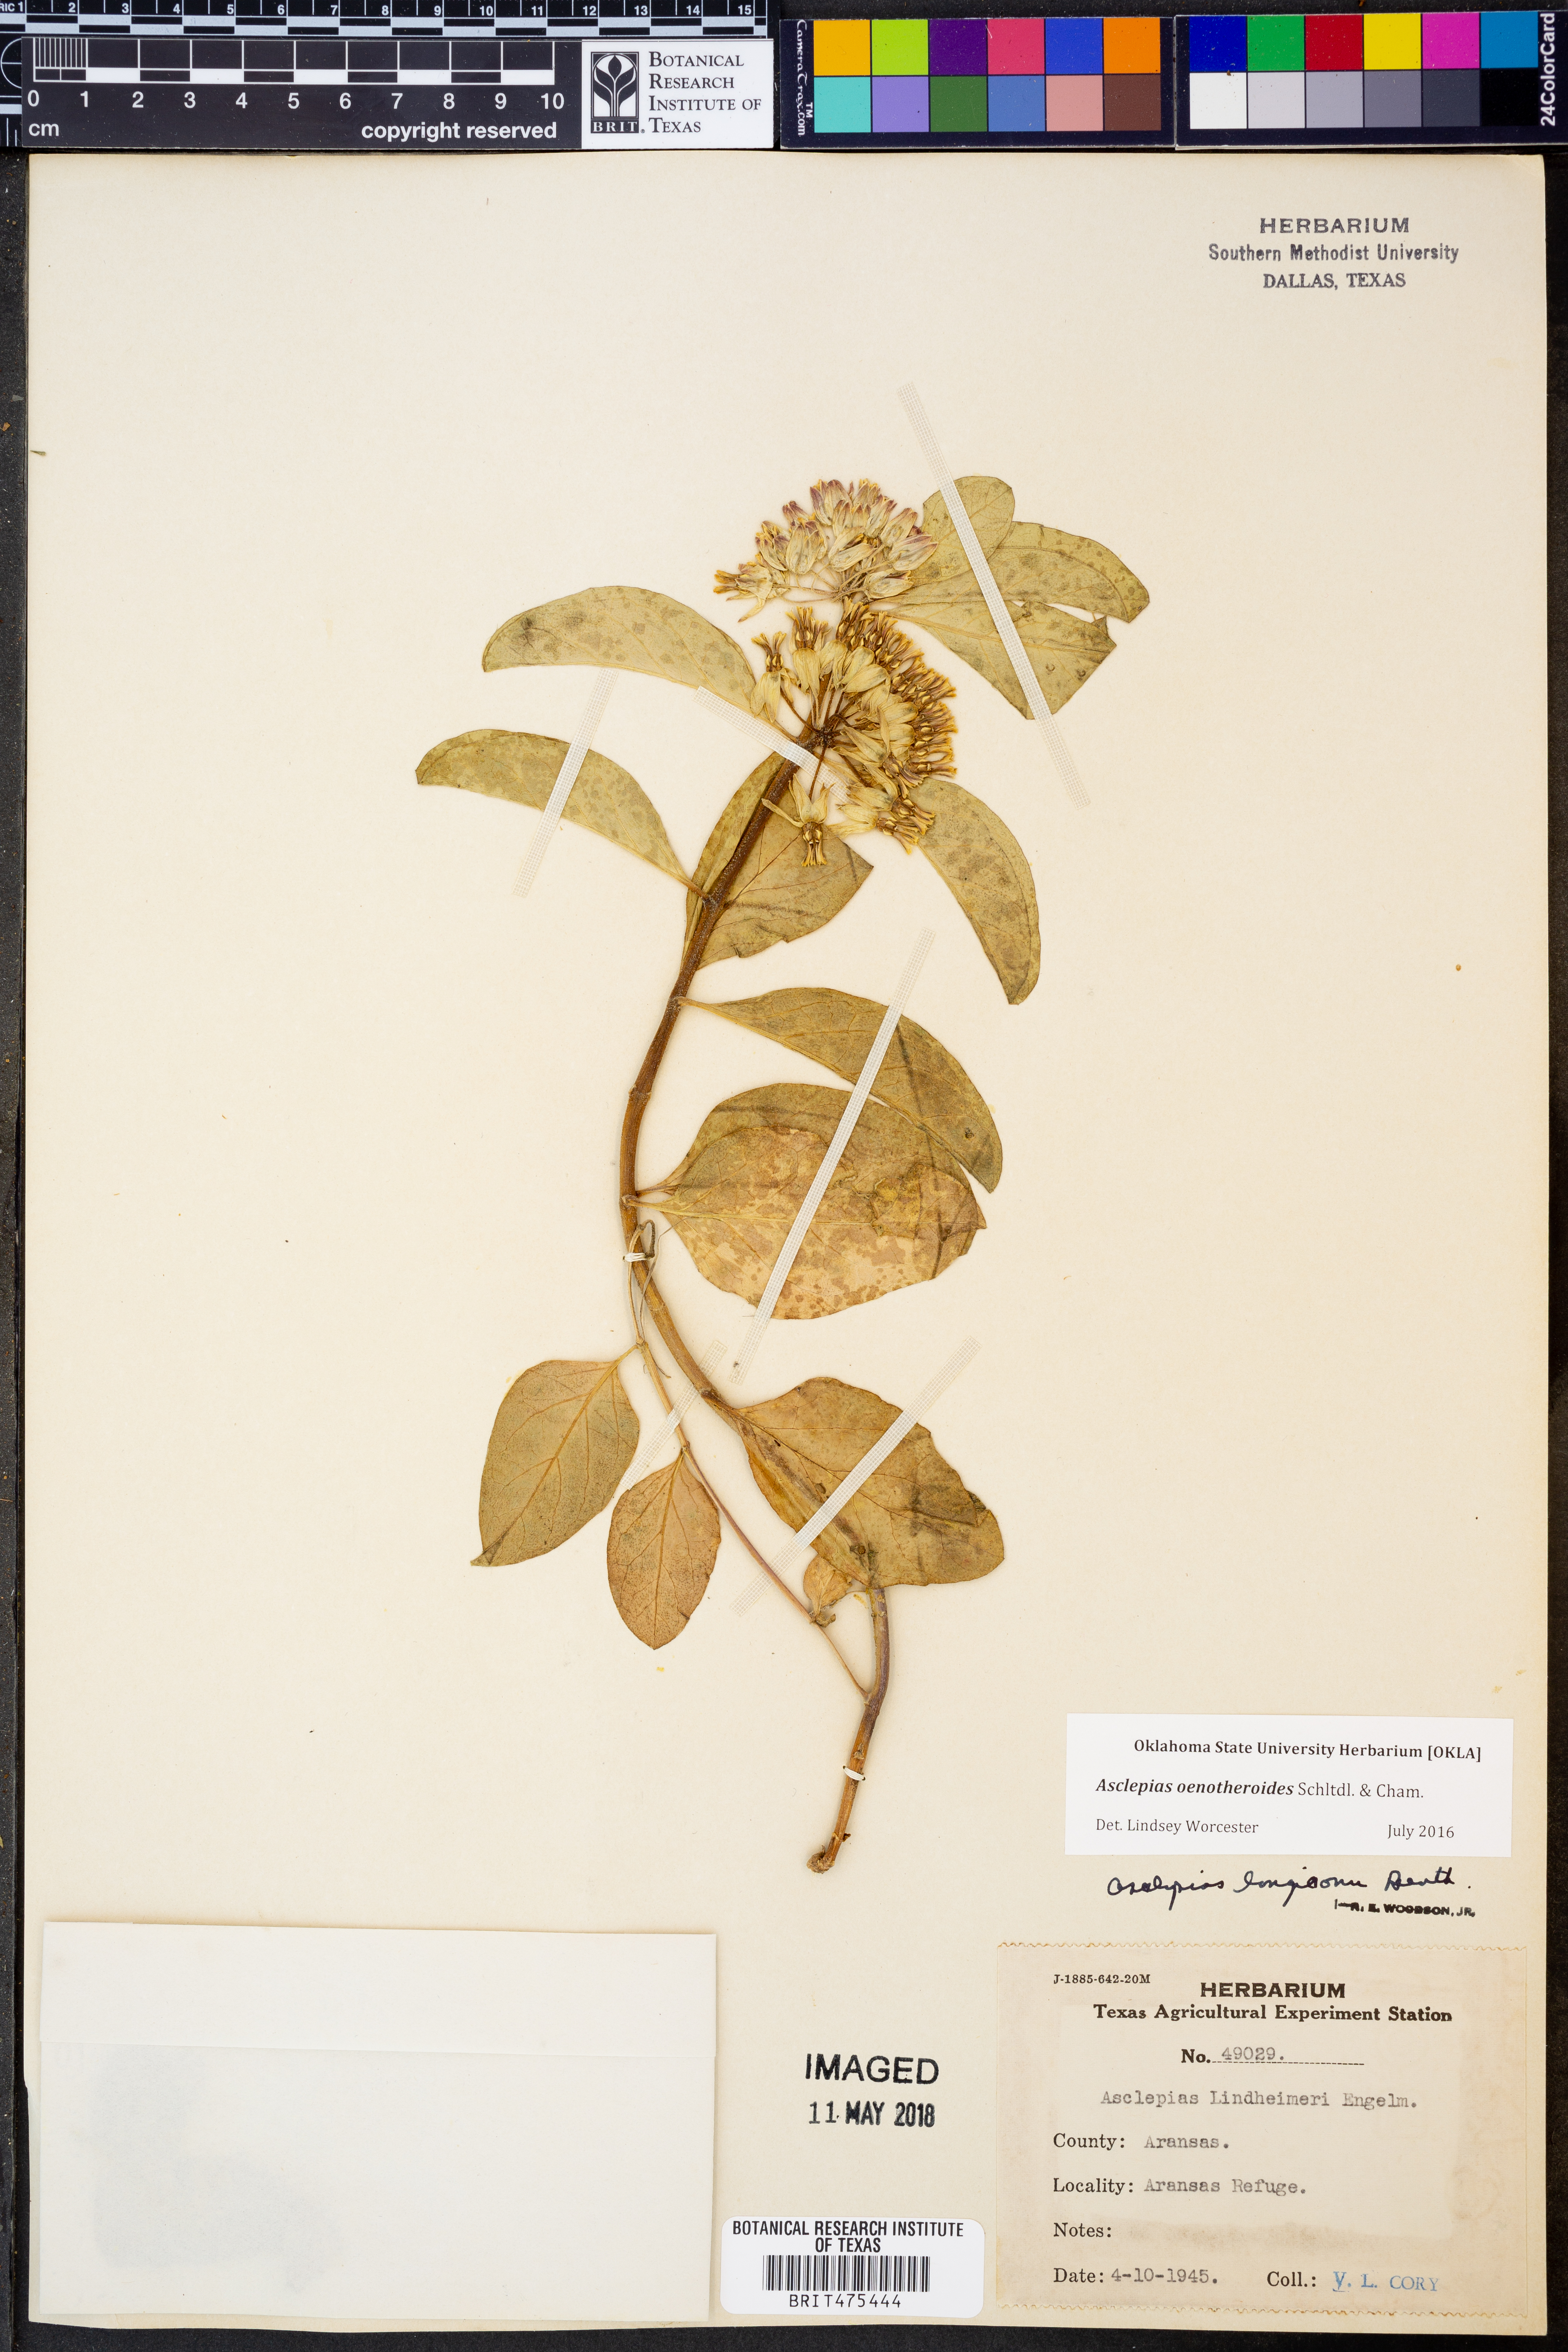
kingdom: Plantae
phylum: Tracheophyta
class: Magnoliopsida
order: Gentianales
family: Apocynaceae
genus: Asclepias
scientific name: Asclepias curtissii
